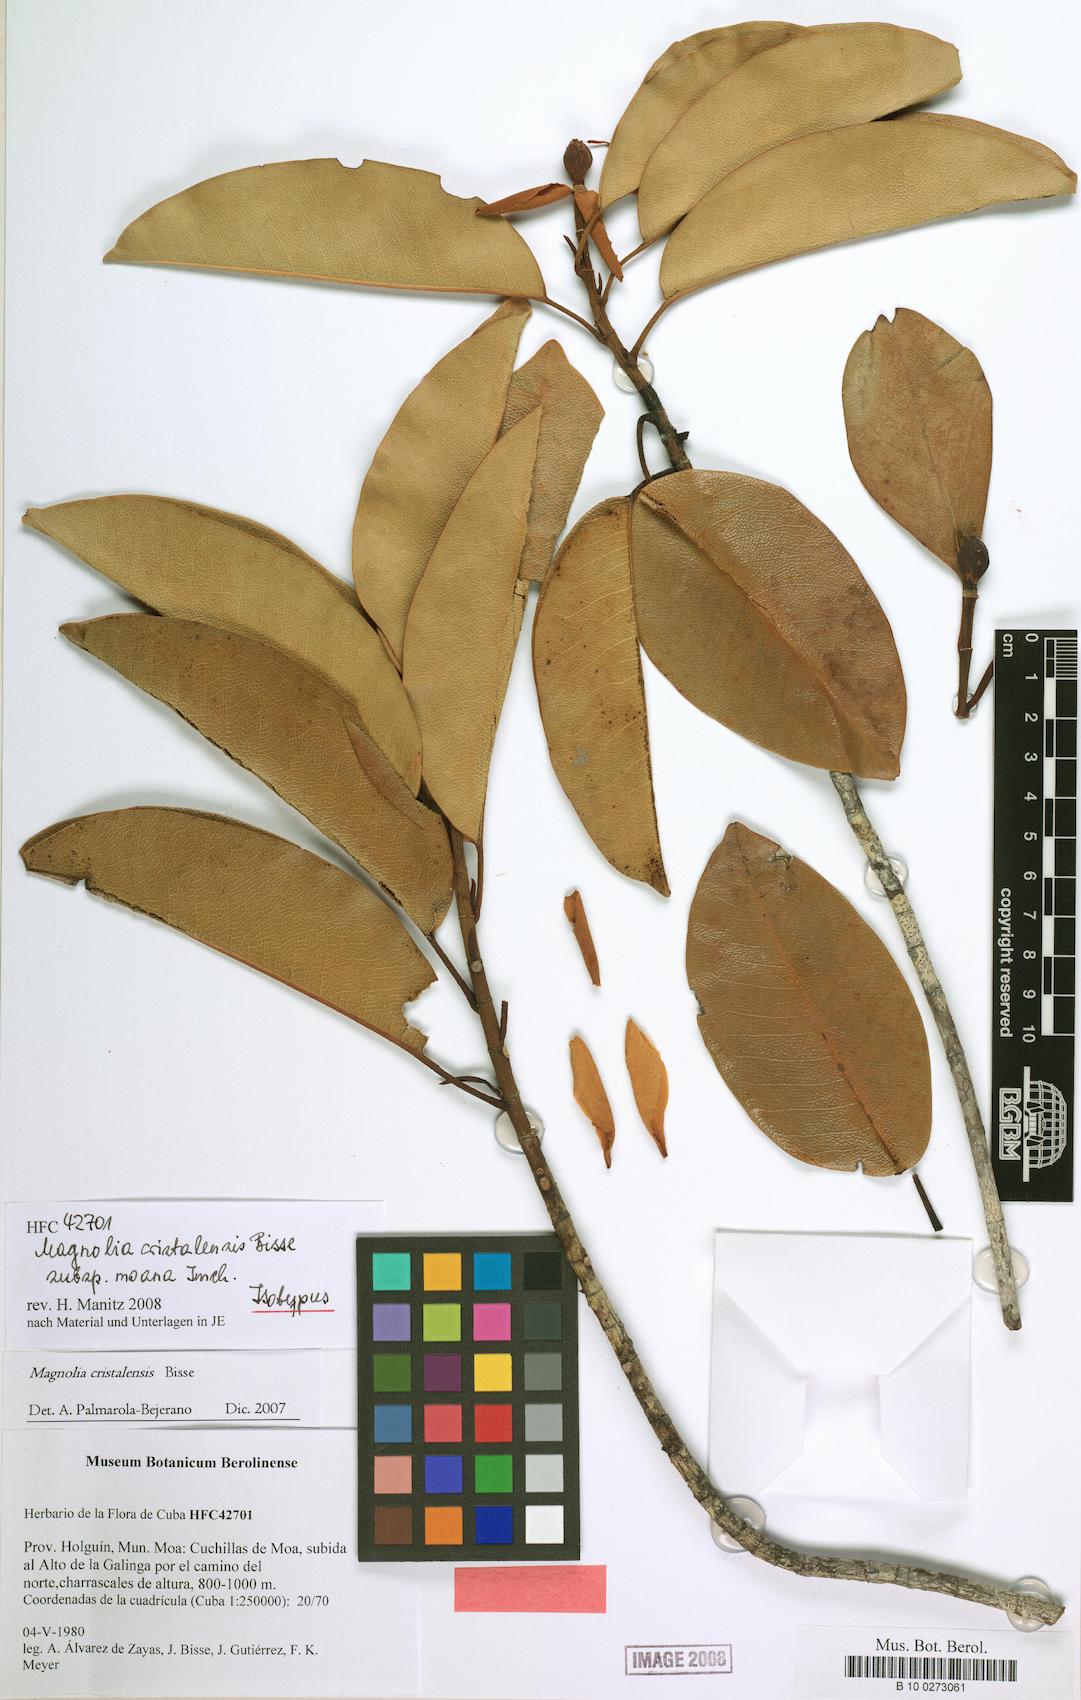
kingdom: Plantae
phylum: Tracheophyta
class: Magnoliopsida
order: Magnoliales
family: Magnoliaceae
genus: Magnolia
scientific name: Magnolia cristalensis
